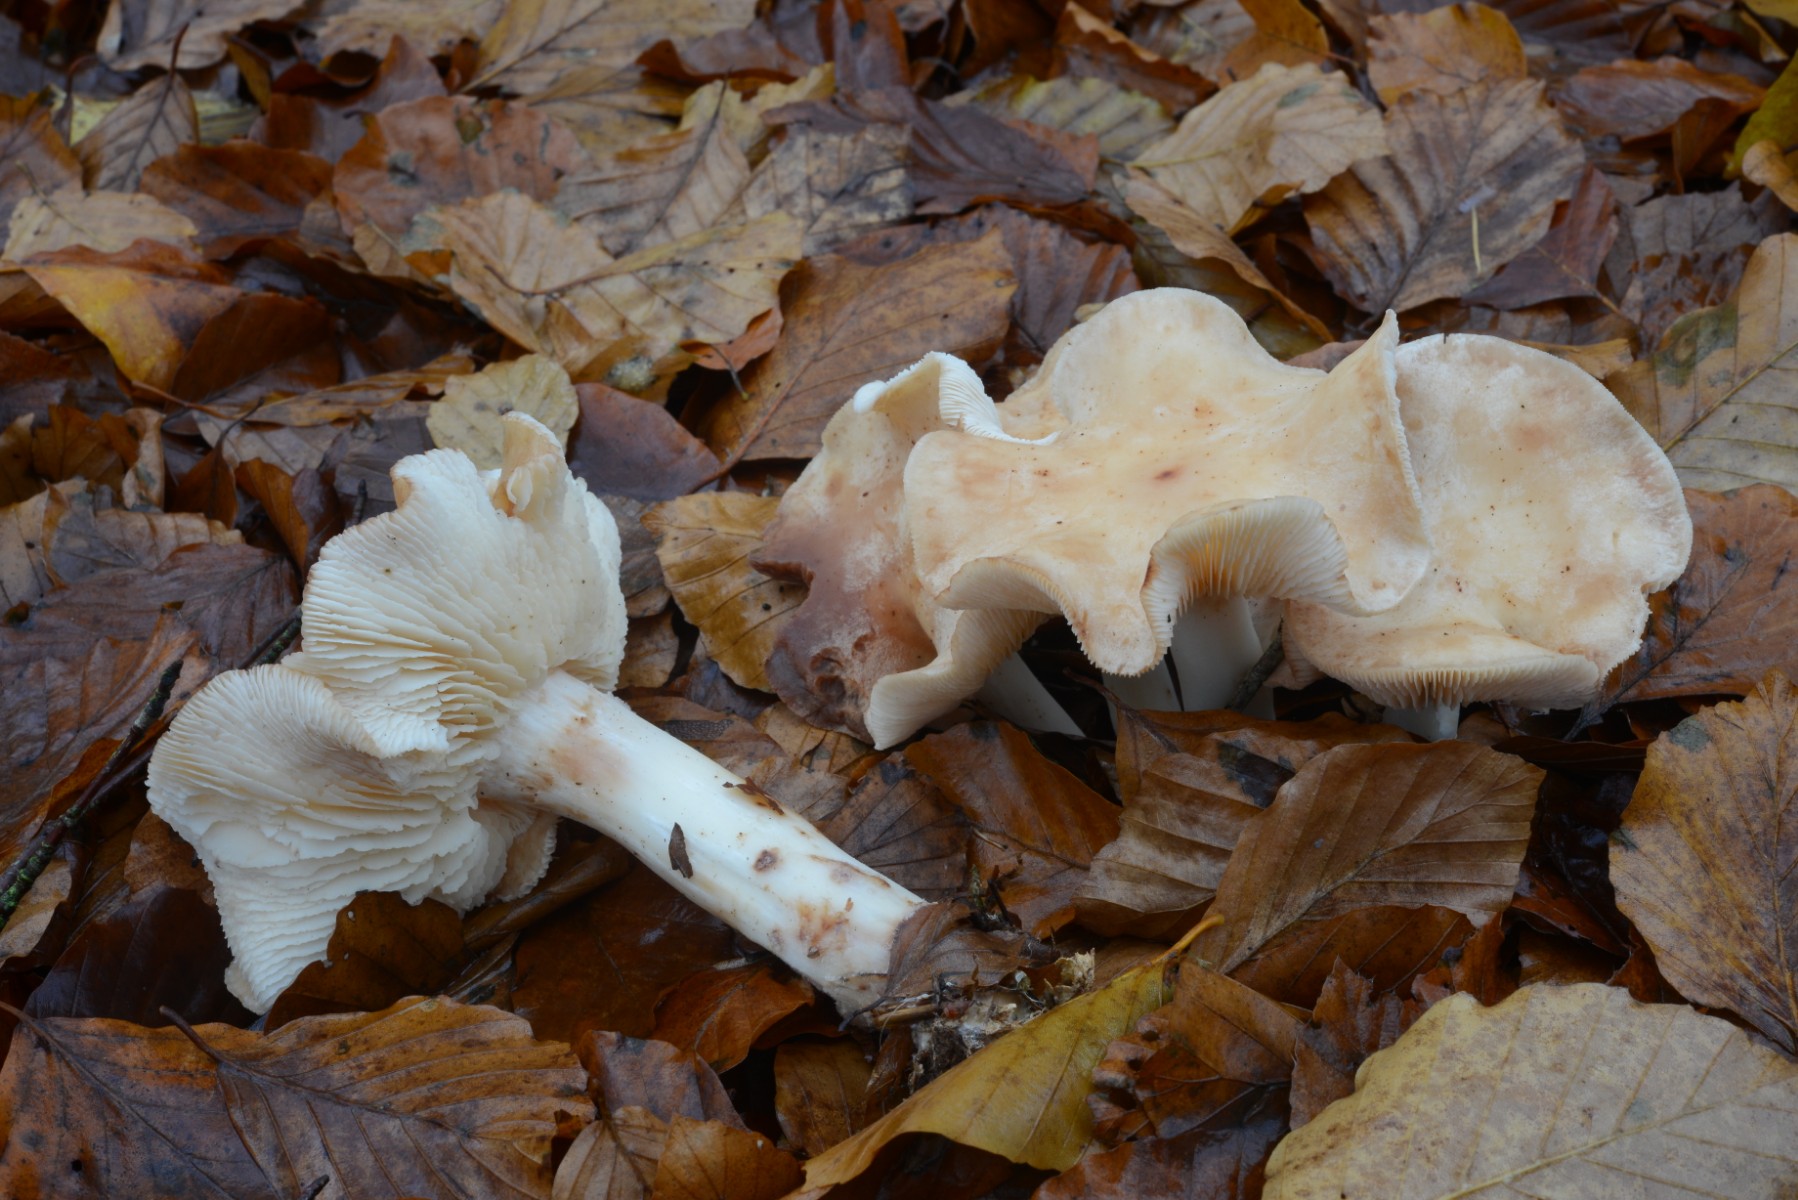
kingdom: Fungi
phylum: Basidiomycota
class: Agaricomycetes
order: Agaricales
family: Omphalotaceae
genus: Rhodocollybia
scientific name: Rhodocollybia maculata
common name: plettet fladhat
